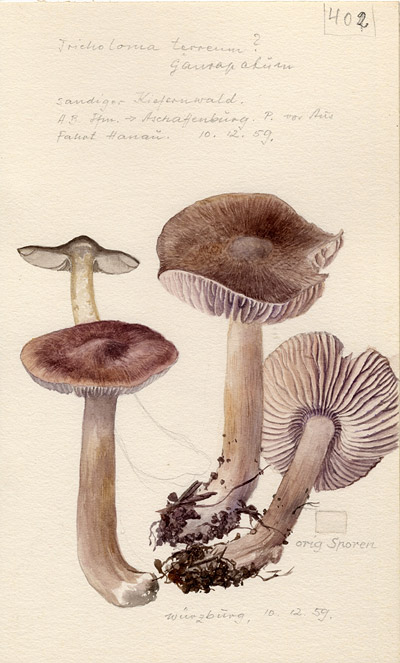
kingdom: Fungi
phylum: Basidiomycota
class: Agaricomycetes
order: Agaricales
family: Tricholomataceae
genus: Tricholoma
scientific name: Tricholoma terreum
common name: Grey knight
